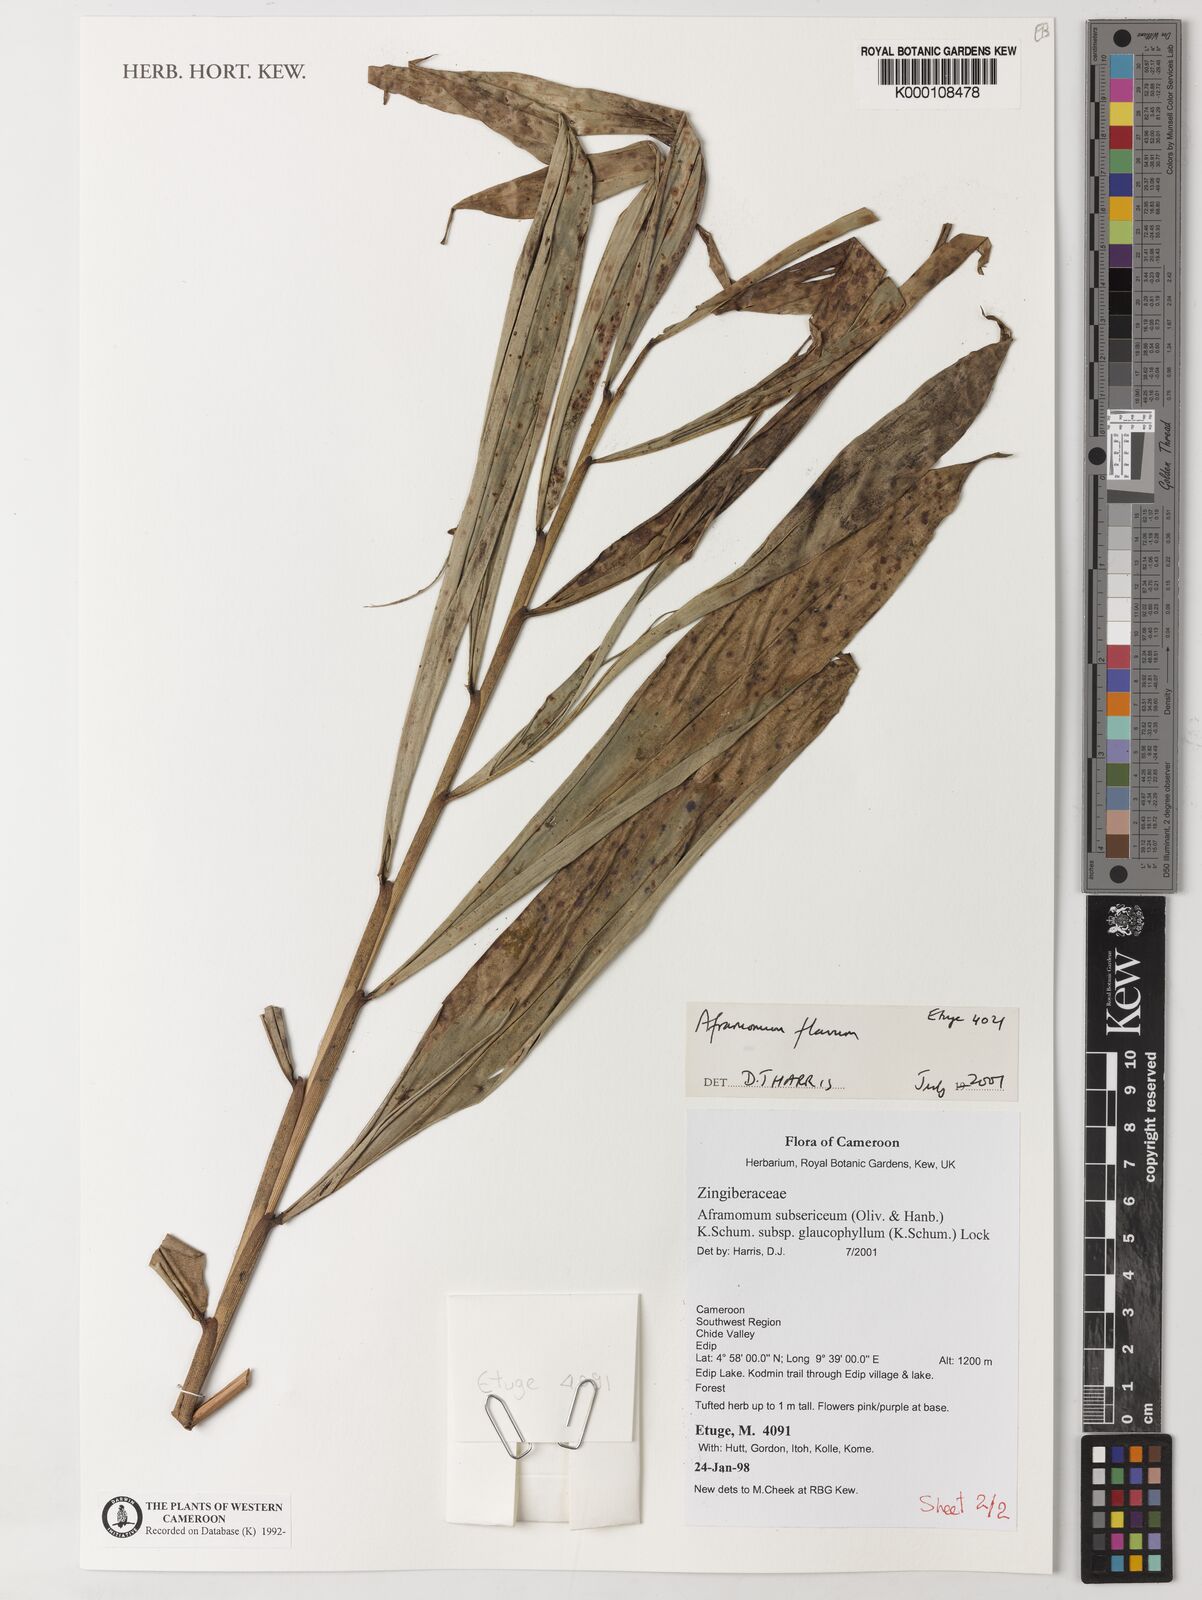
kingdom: Plantae
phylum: Tracheophyta
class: Liliopsida
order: Zingiberales
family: Zingiberaceae
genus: Aframomum
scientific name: Aframomum daniellii
